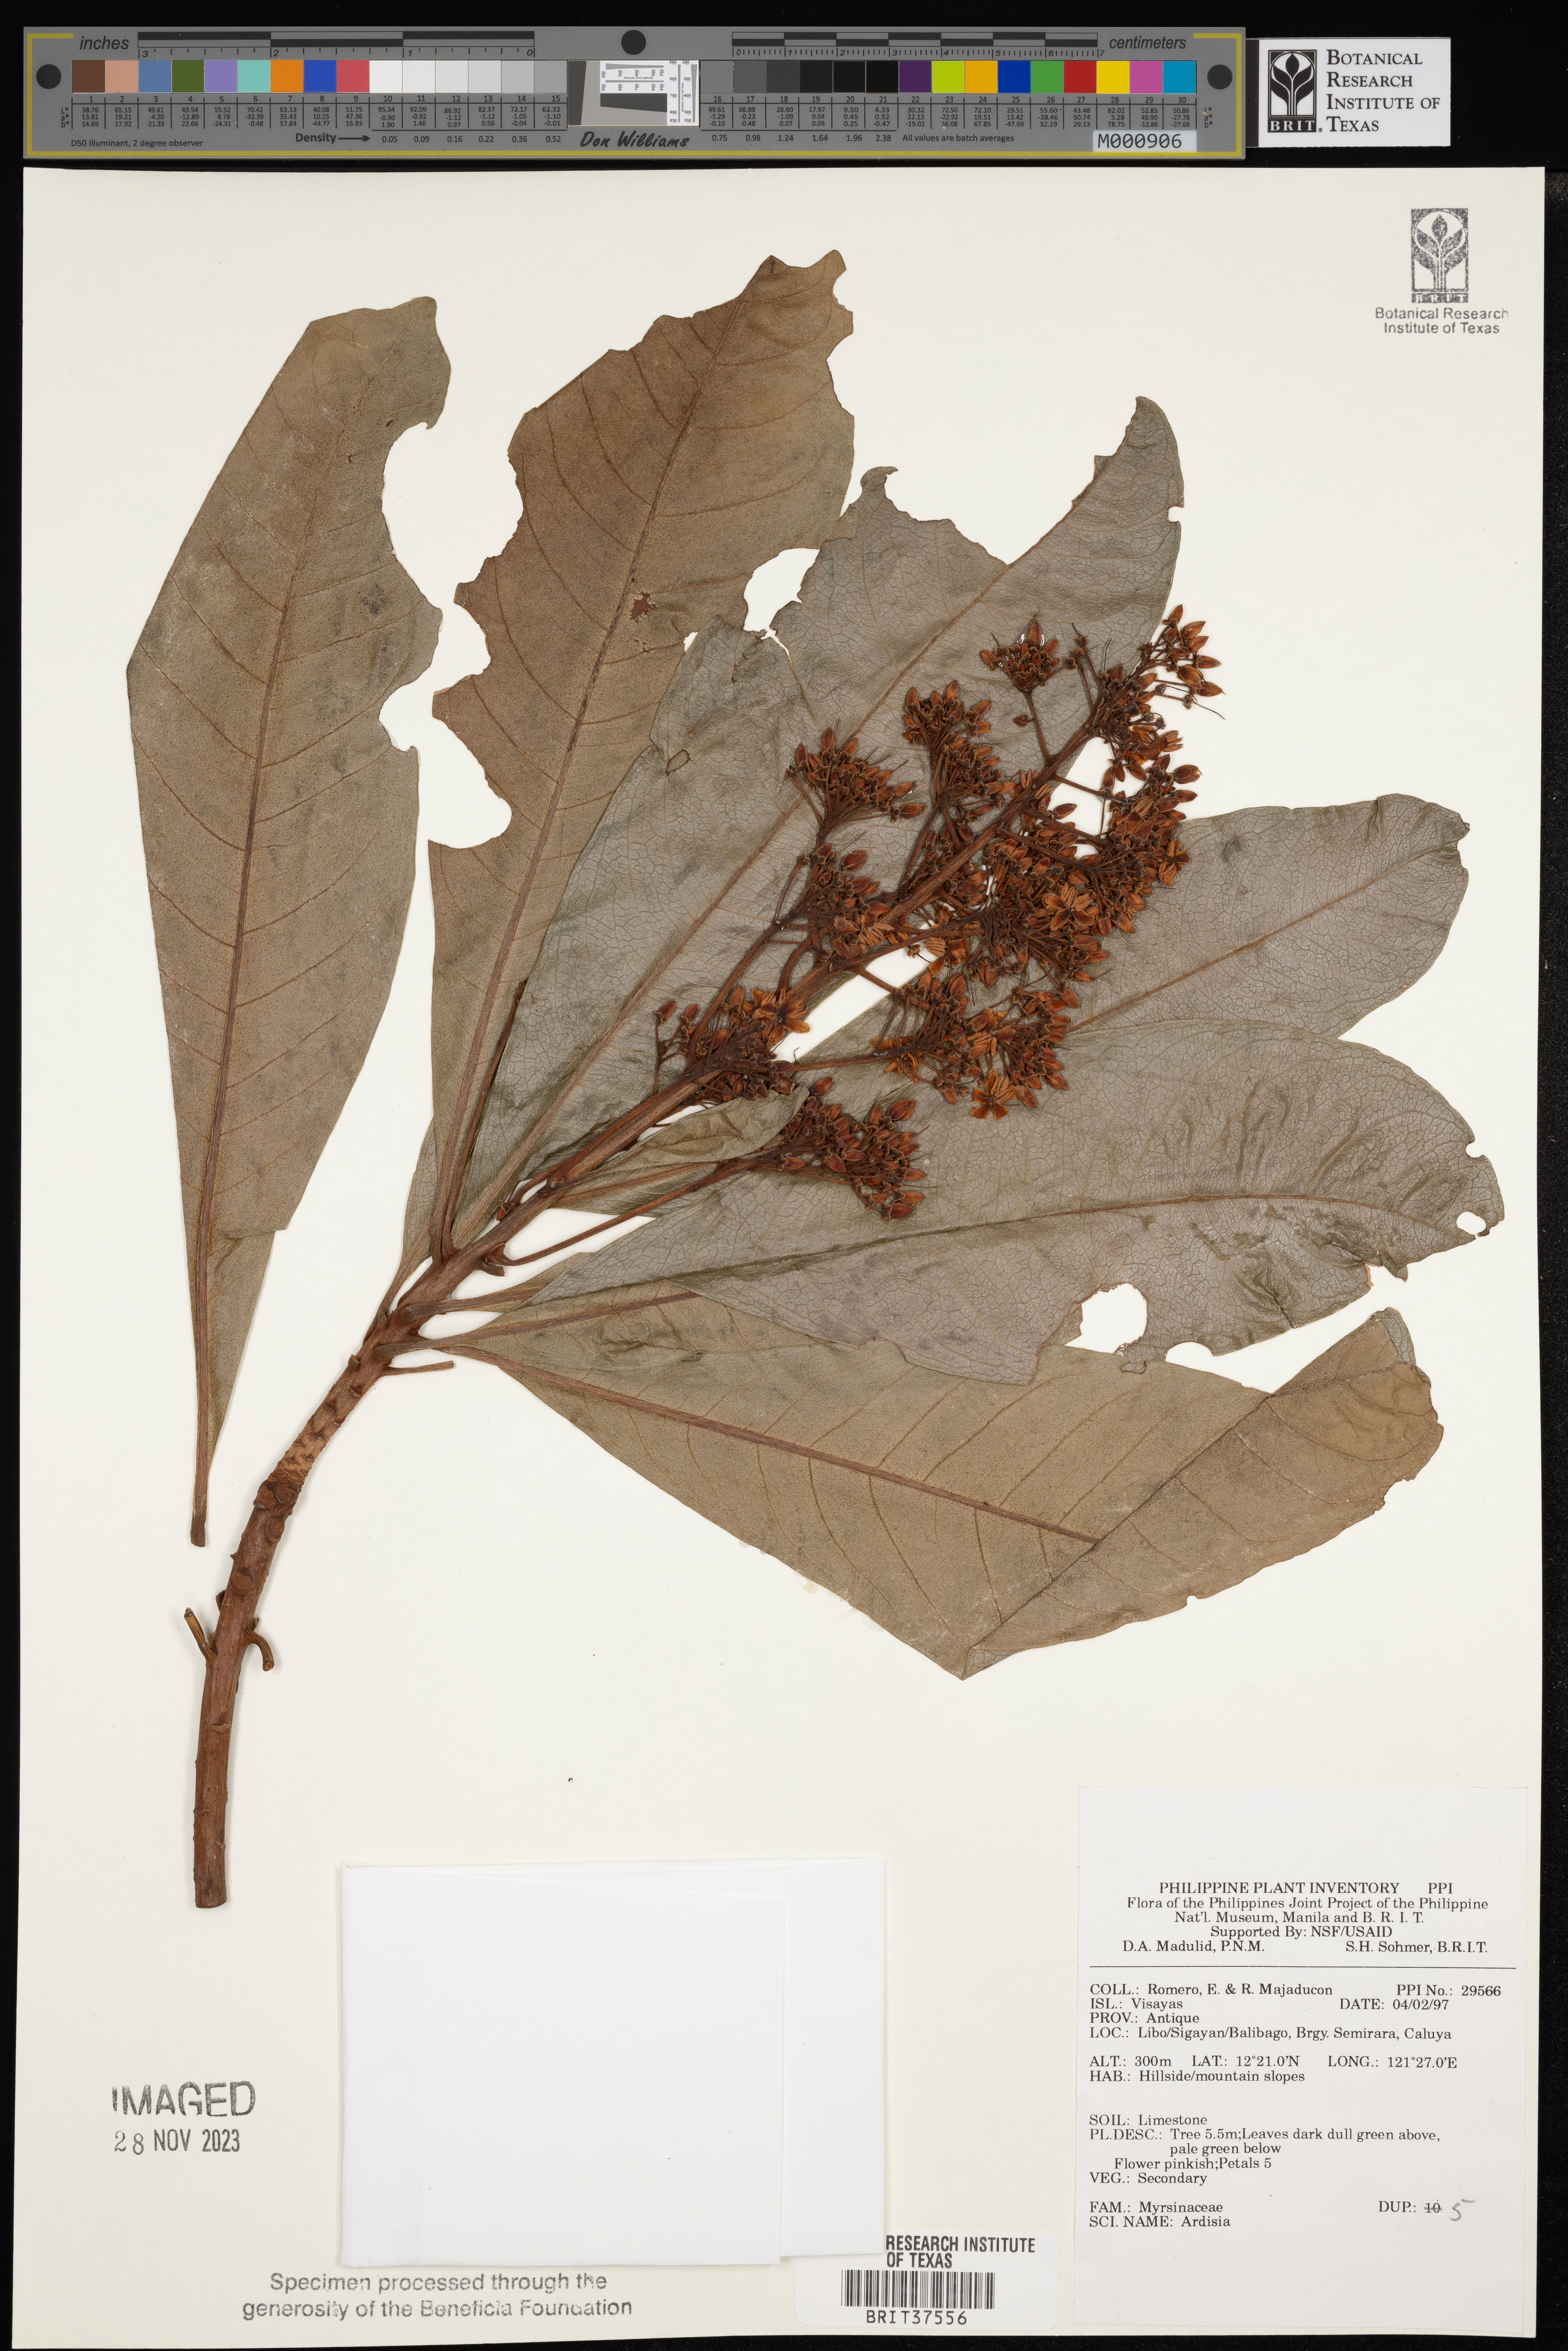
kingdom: Plantae
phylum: Tracheophyta
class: Magnoliopsida
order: Ericales
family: Primulaceae
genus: Ardisia
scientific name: Ardisia
